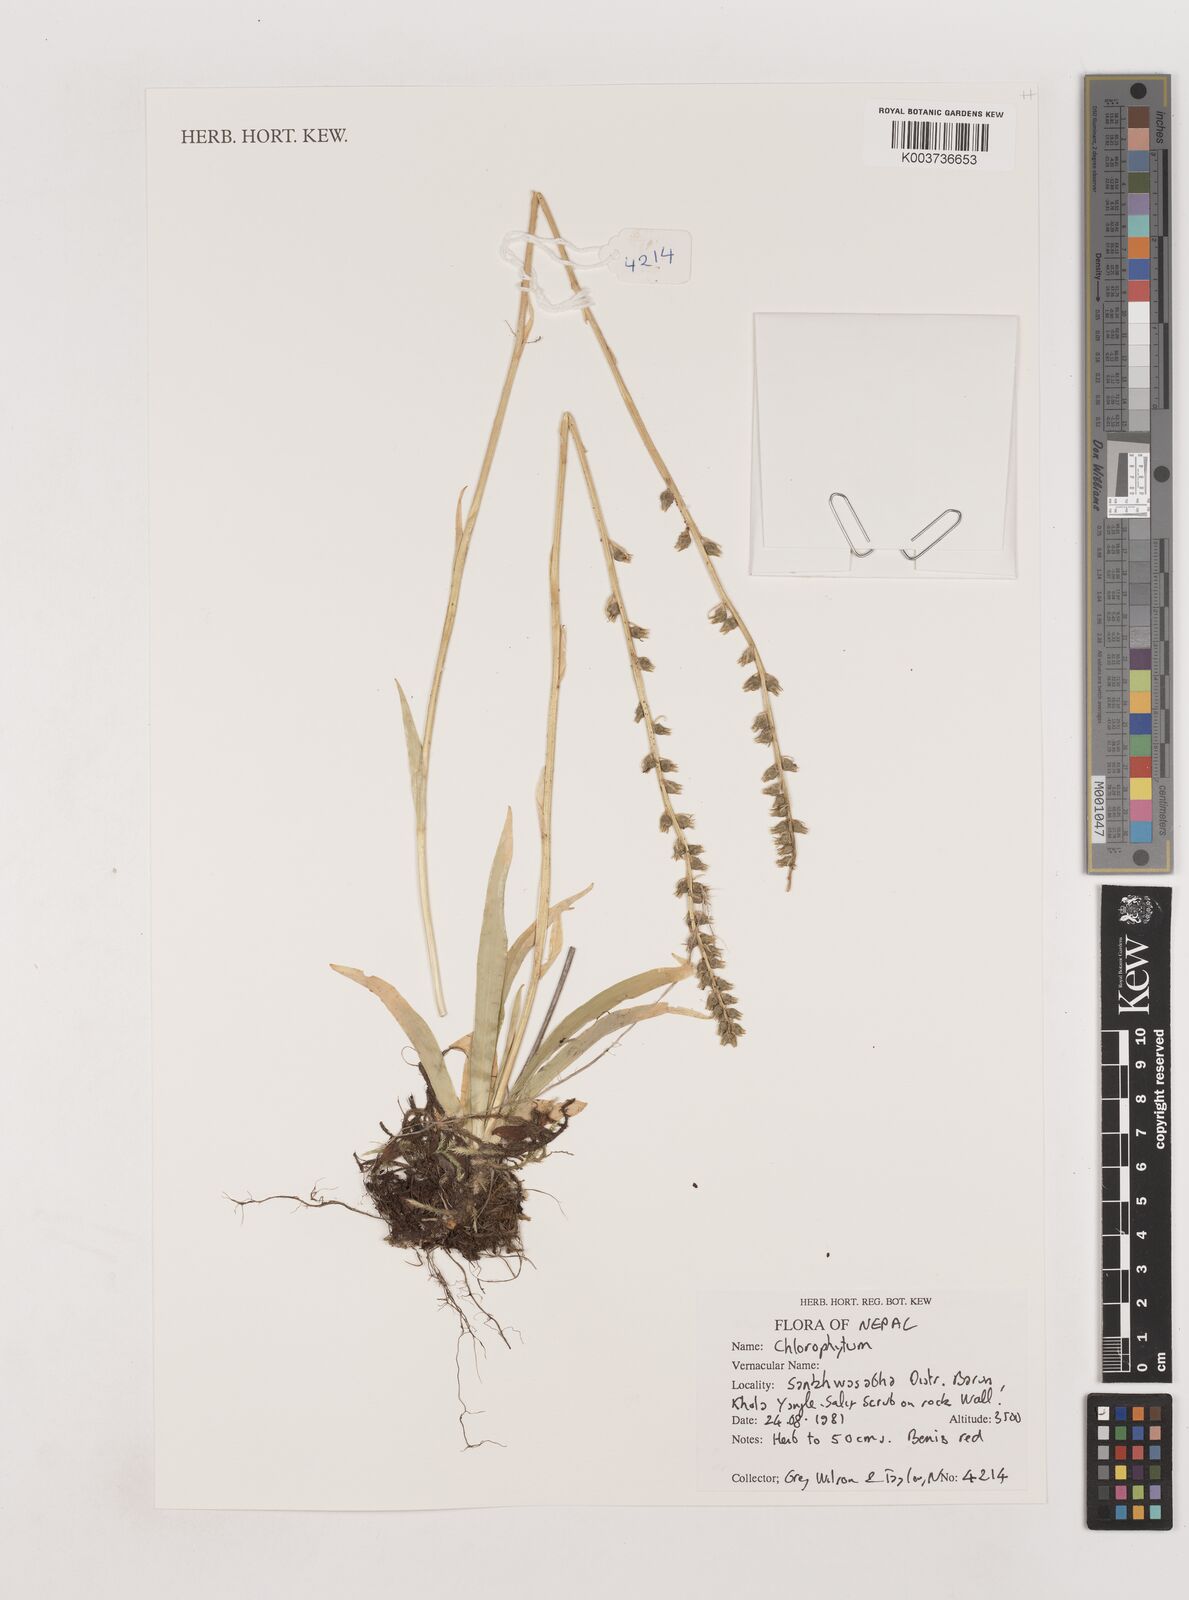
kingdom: Plantae
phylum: Tracheophyta
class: Liliopsida
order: Asparagales
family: Asparagaceae
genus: Chlorophytum
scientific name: Chlorophytum
